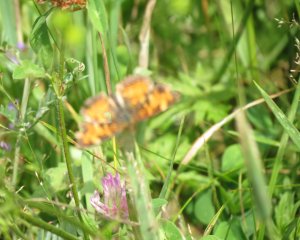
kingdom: Animalia
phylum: Arthropoda
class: Insecta
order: Lepidoptera
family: Nymphalidae
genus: Phyciodes
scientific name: Phyciodes tharos
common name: Northern Crescent
